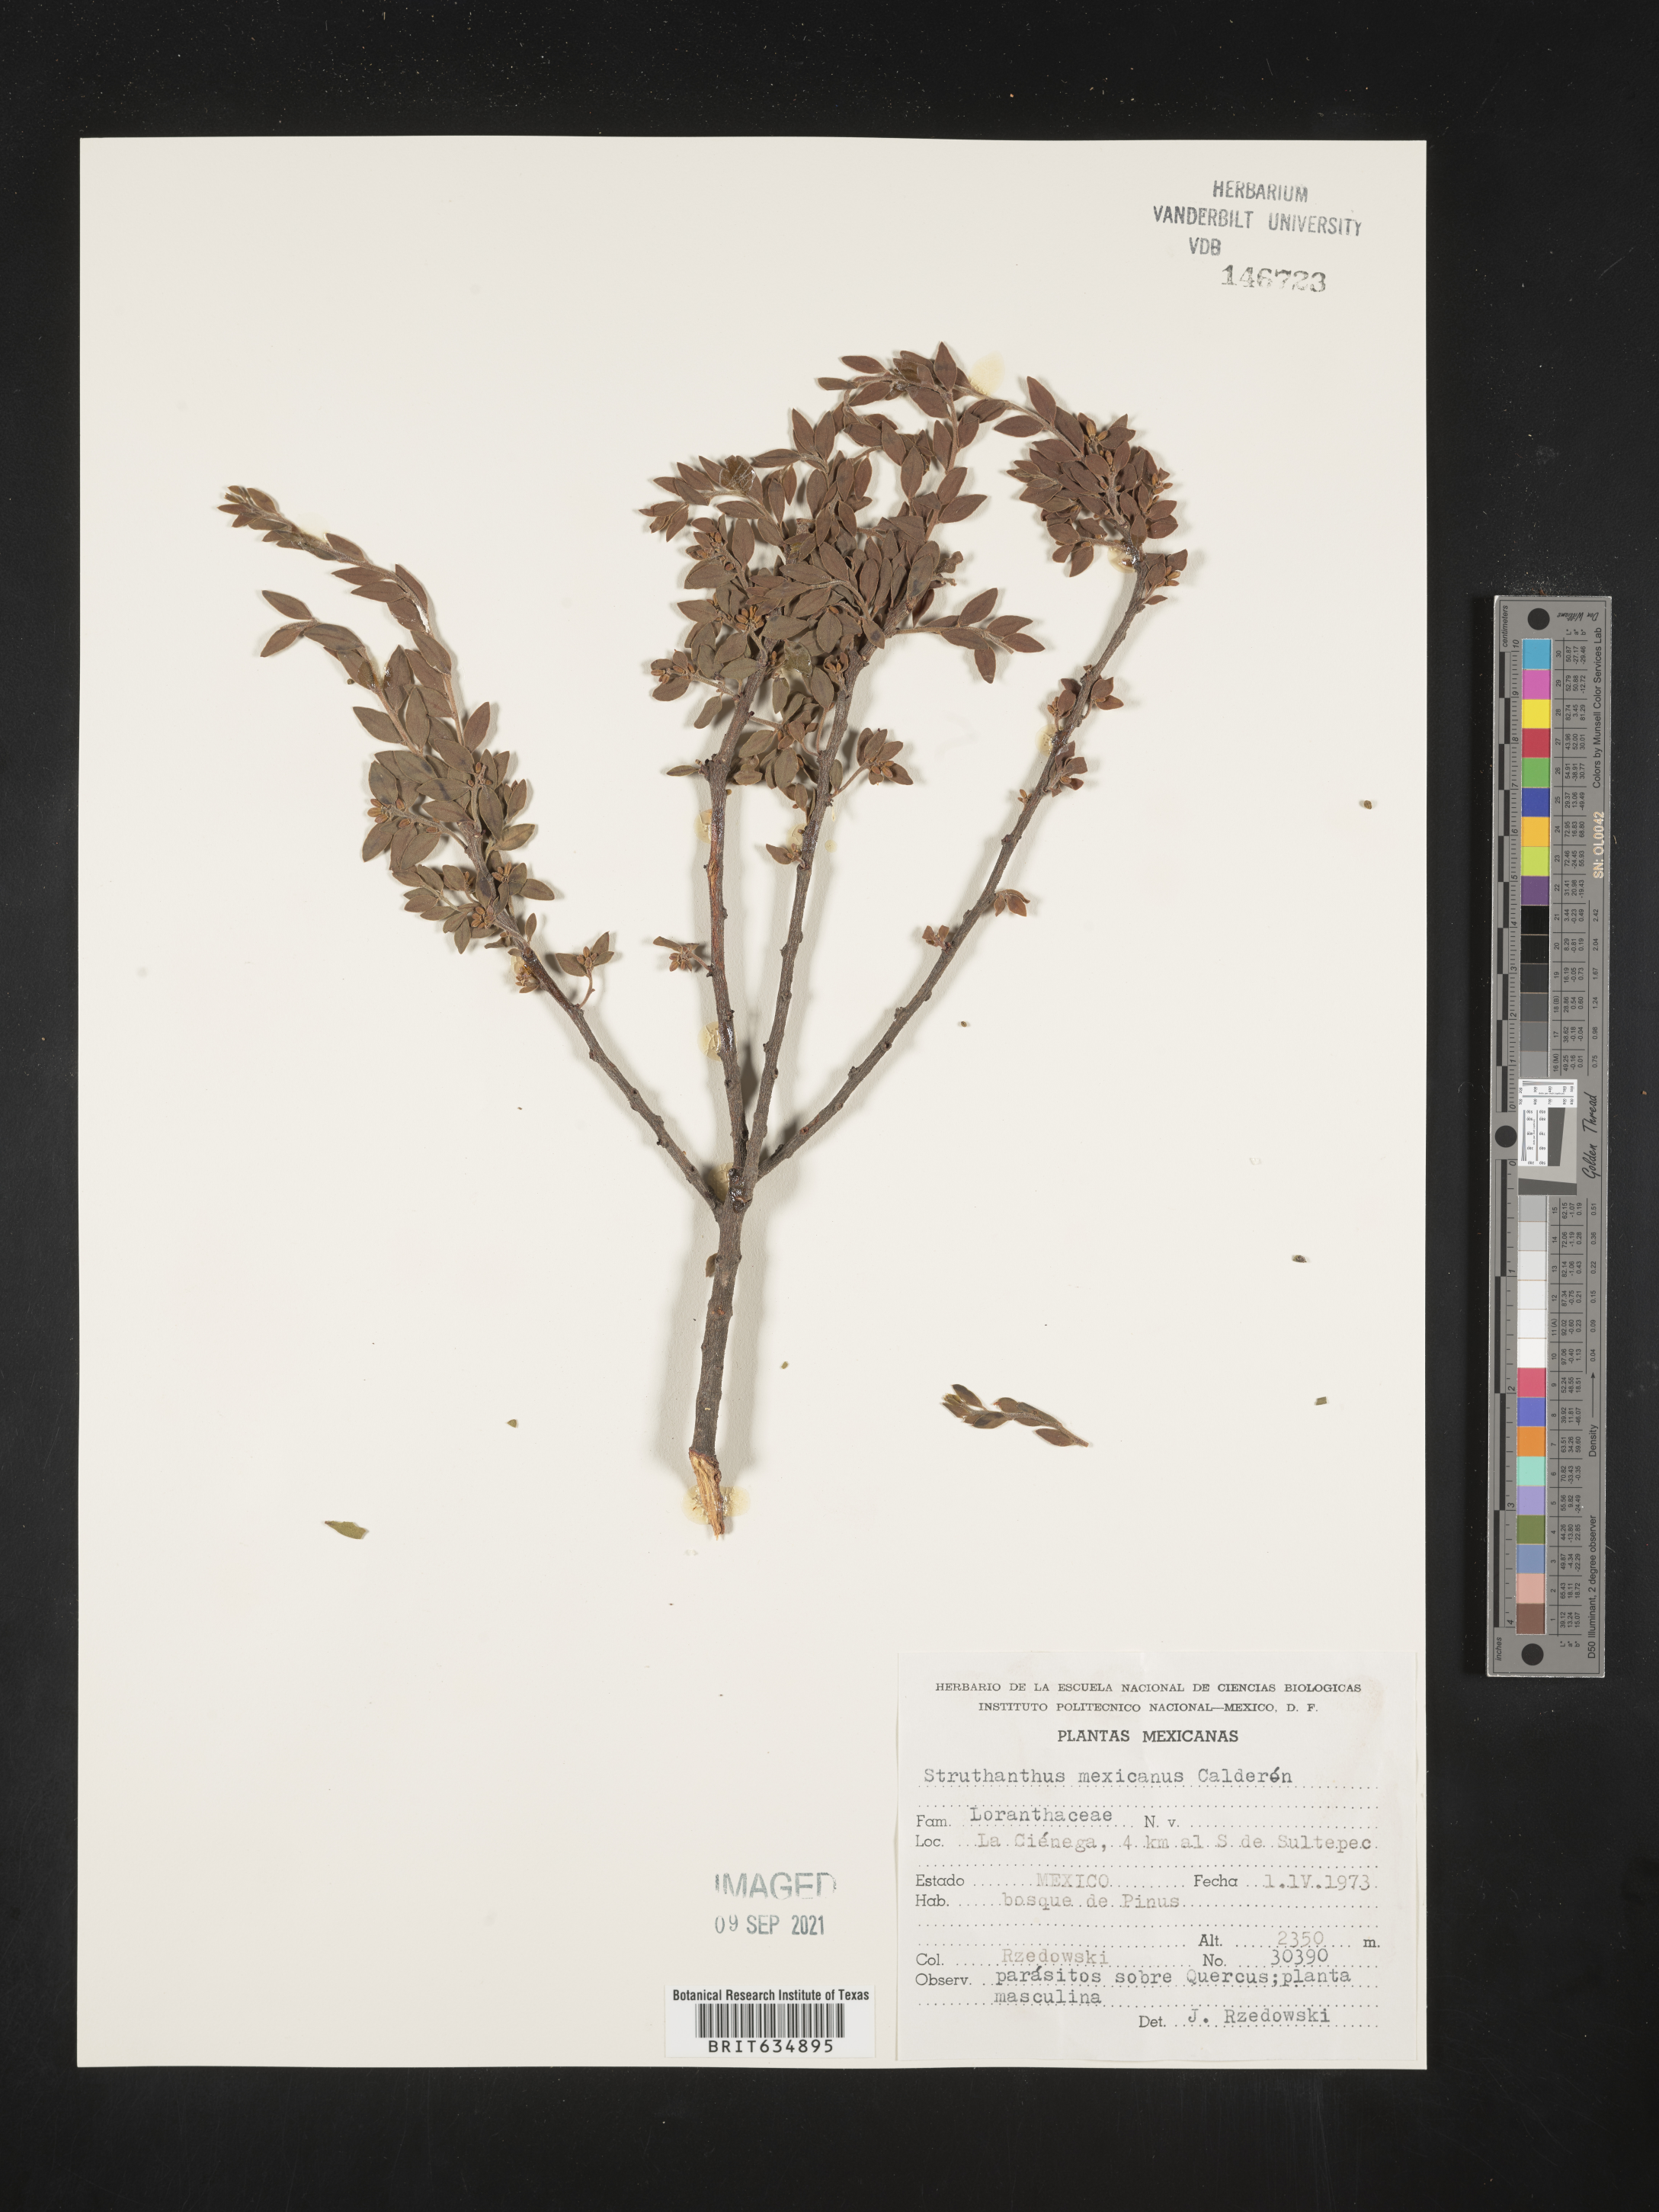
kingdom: Plantae
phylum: Tracheophyta
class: Magnoliopsida
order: Santalales
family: Loranthaceae
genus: Struthanthus
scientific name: Struthanthus
